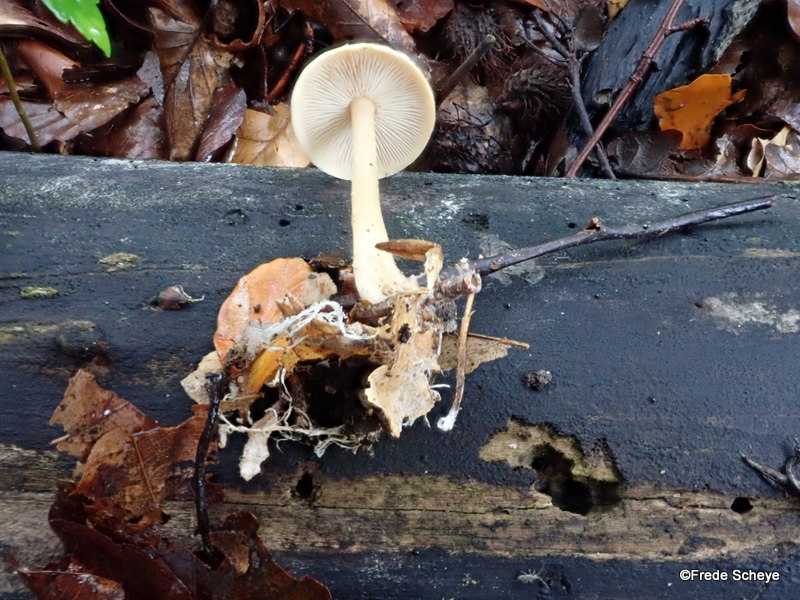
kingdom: Fungi
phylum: Basidiomycota
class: Agaricomycetes
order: Agaricales
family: Omphalotaceae
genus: Collybiopsis
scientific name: Collybiopsis peronata
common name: bestøvlet fladhat
